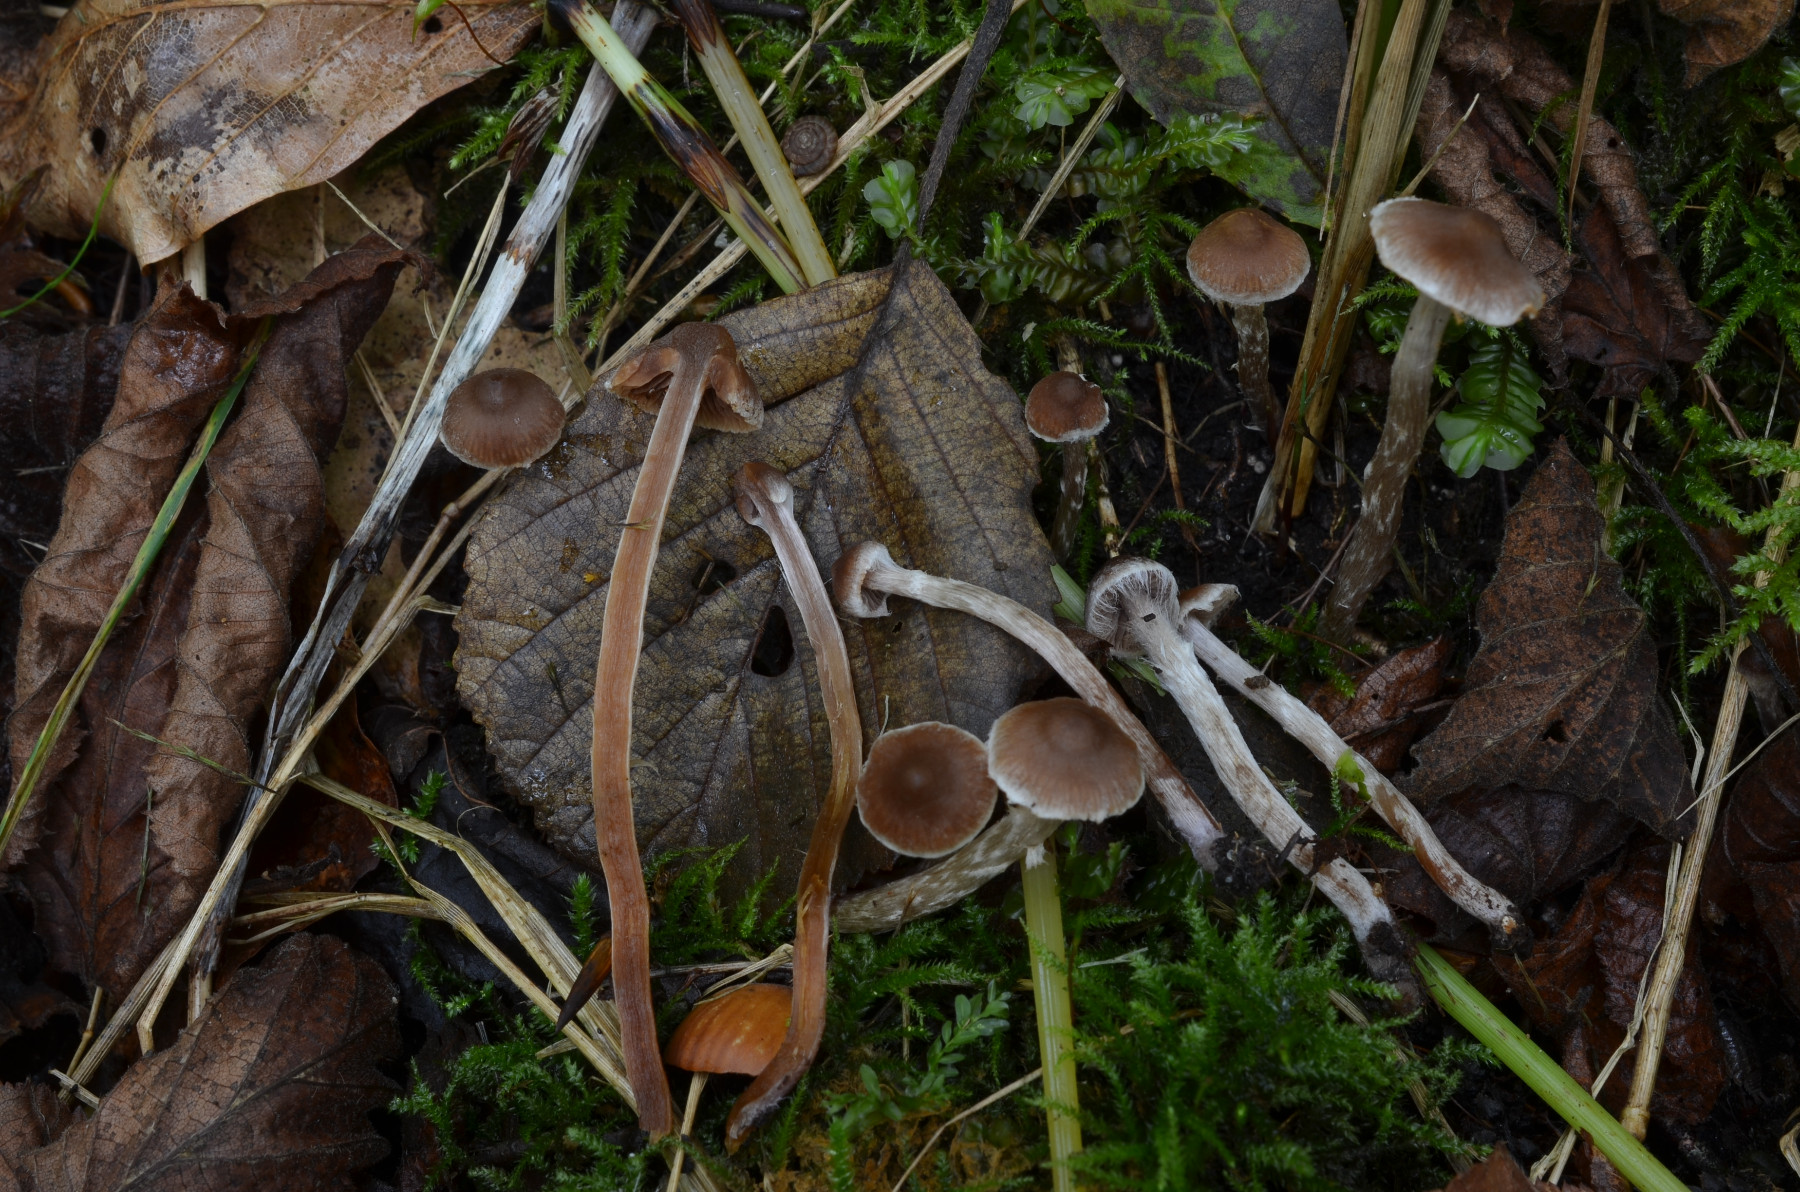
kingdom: Fungi
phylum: Basidiomycota
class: Agaricomycetes
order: Agaricales
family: Cortinariaceae
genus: Cortinarius
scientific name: Cortinarius pilatii
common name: Piláts slørhat
